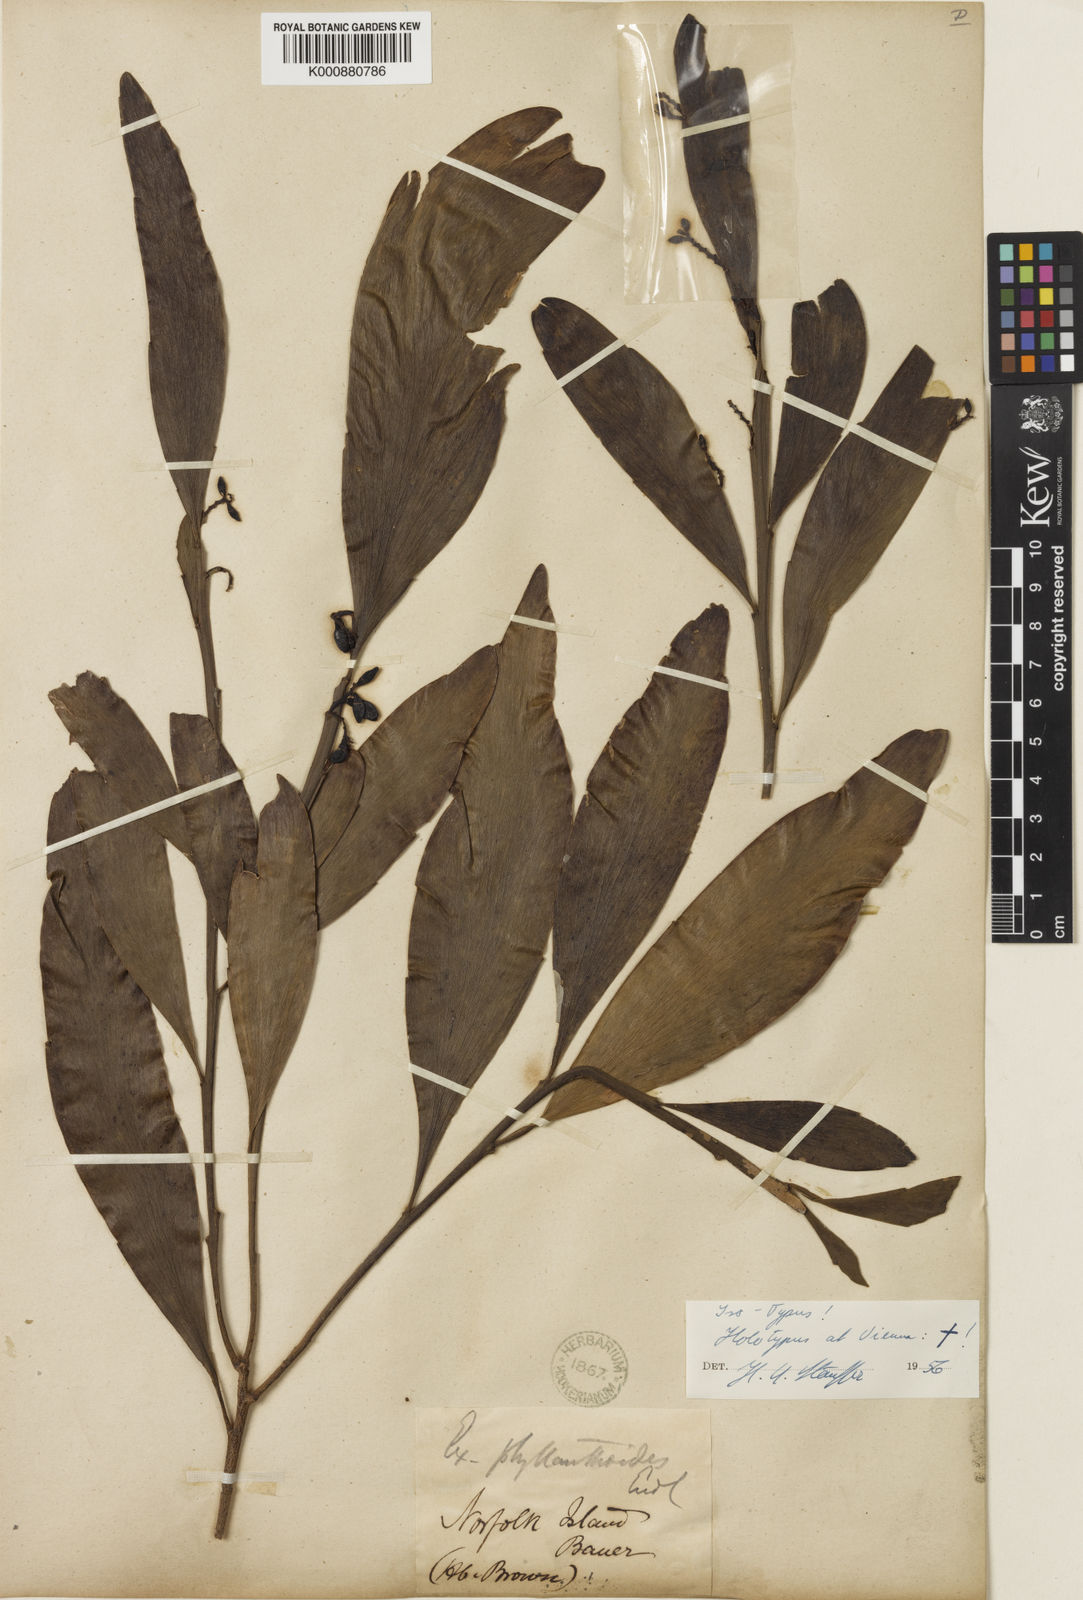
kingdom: Plantae
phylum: Tracheophyta
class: Magnoliopsida
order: Santalales
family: Santalaceae
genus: Exocarpos
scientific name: Exocarpos phyllanthoides
